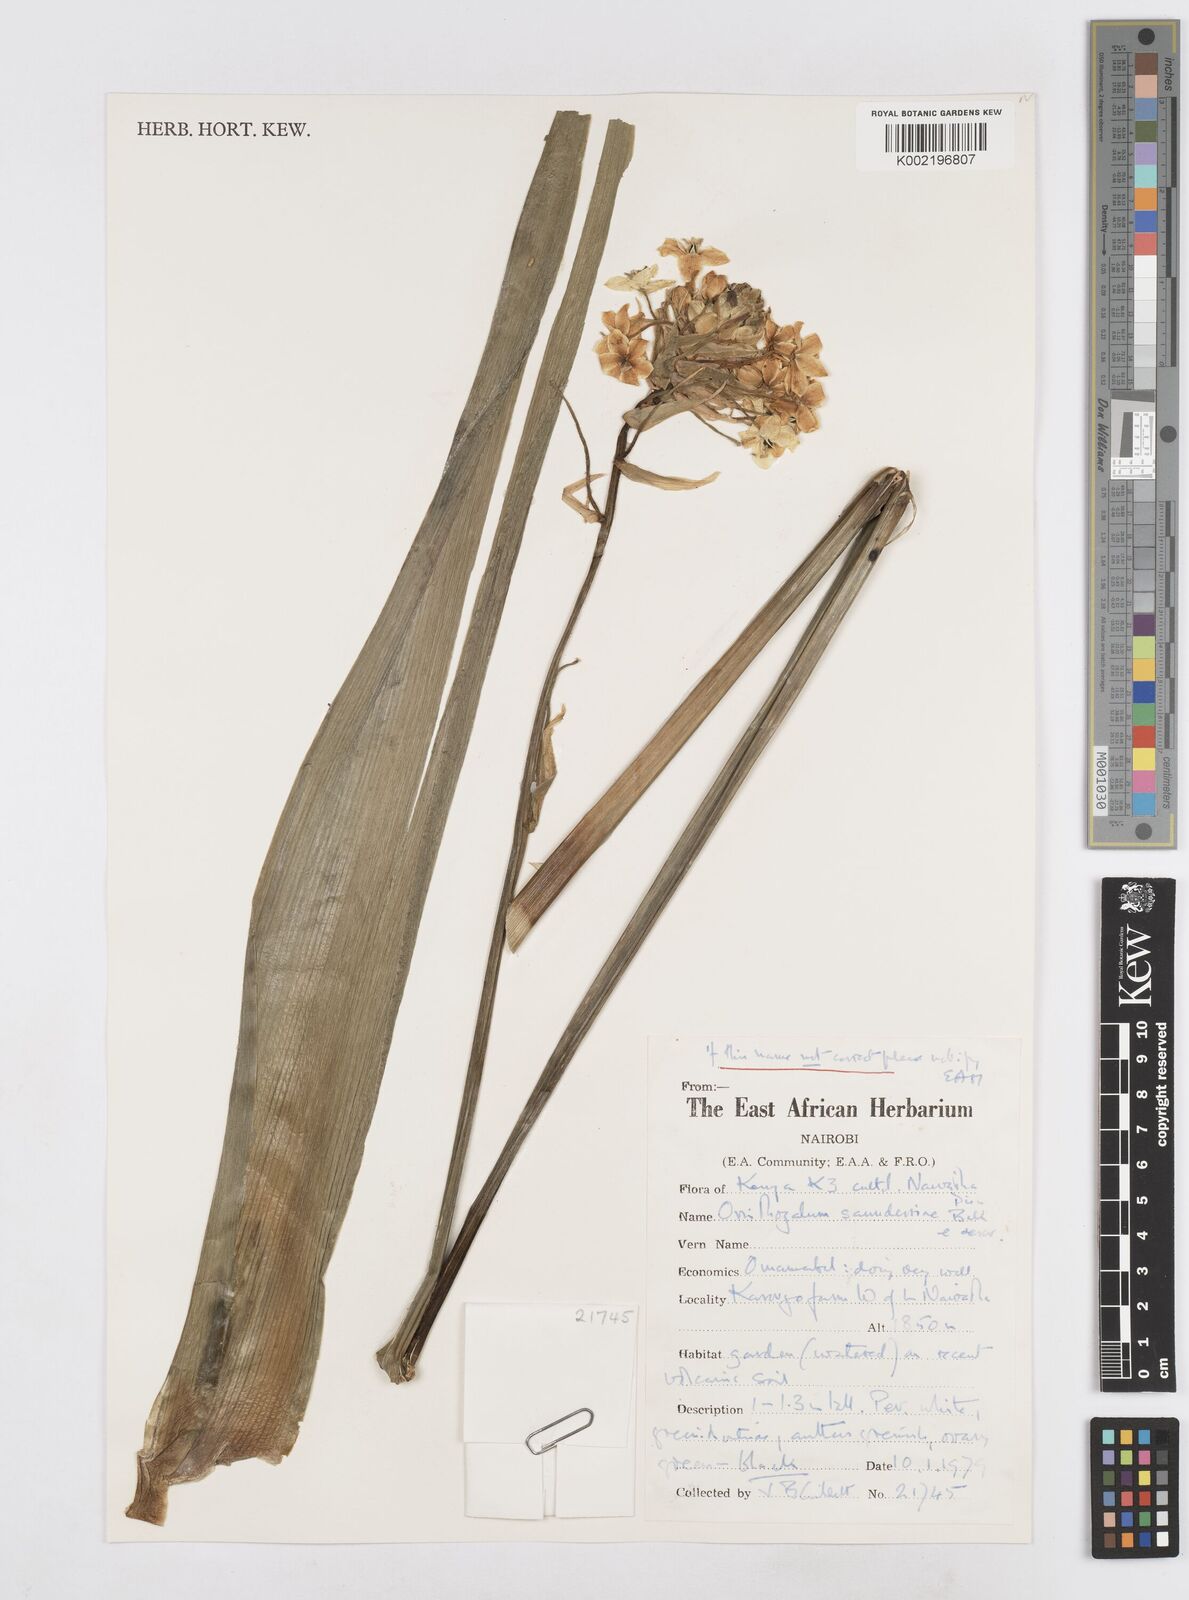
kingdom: Plantae
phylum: Tracheophyta
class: Liliopsida
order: Asparagales
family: Asparagaceae
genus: Ornithogalum
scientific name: Ornithogalum saundersiae
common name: Giant chincherinchee
